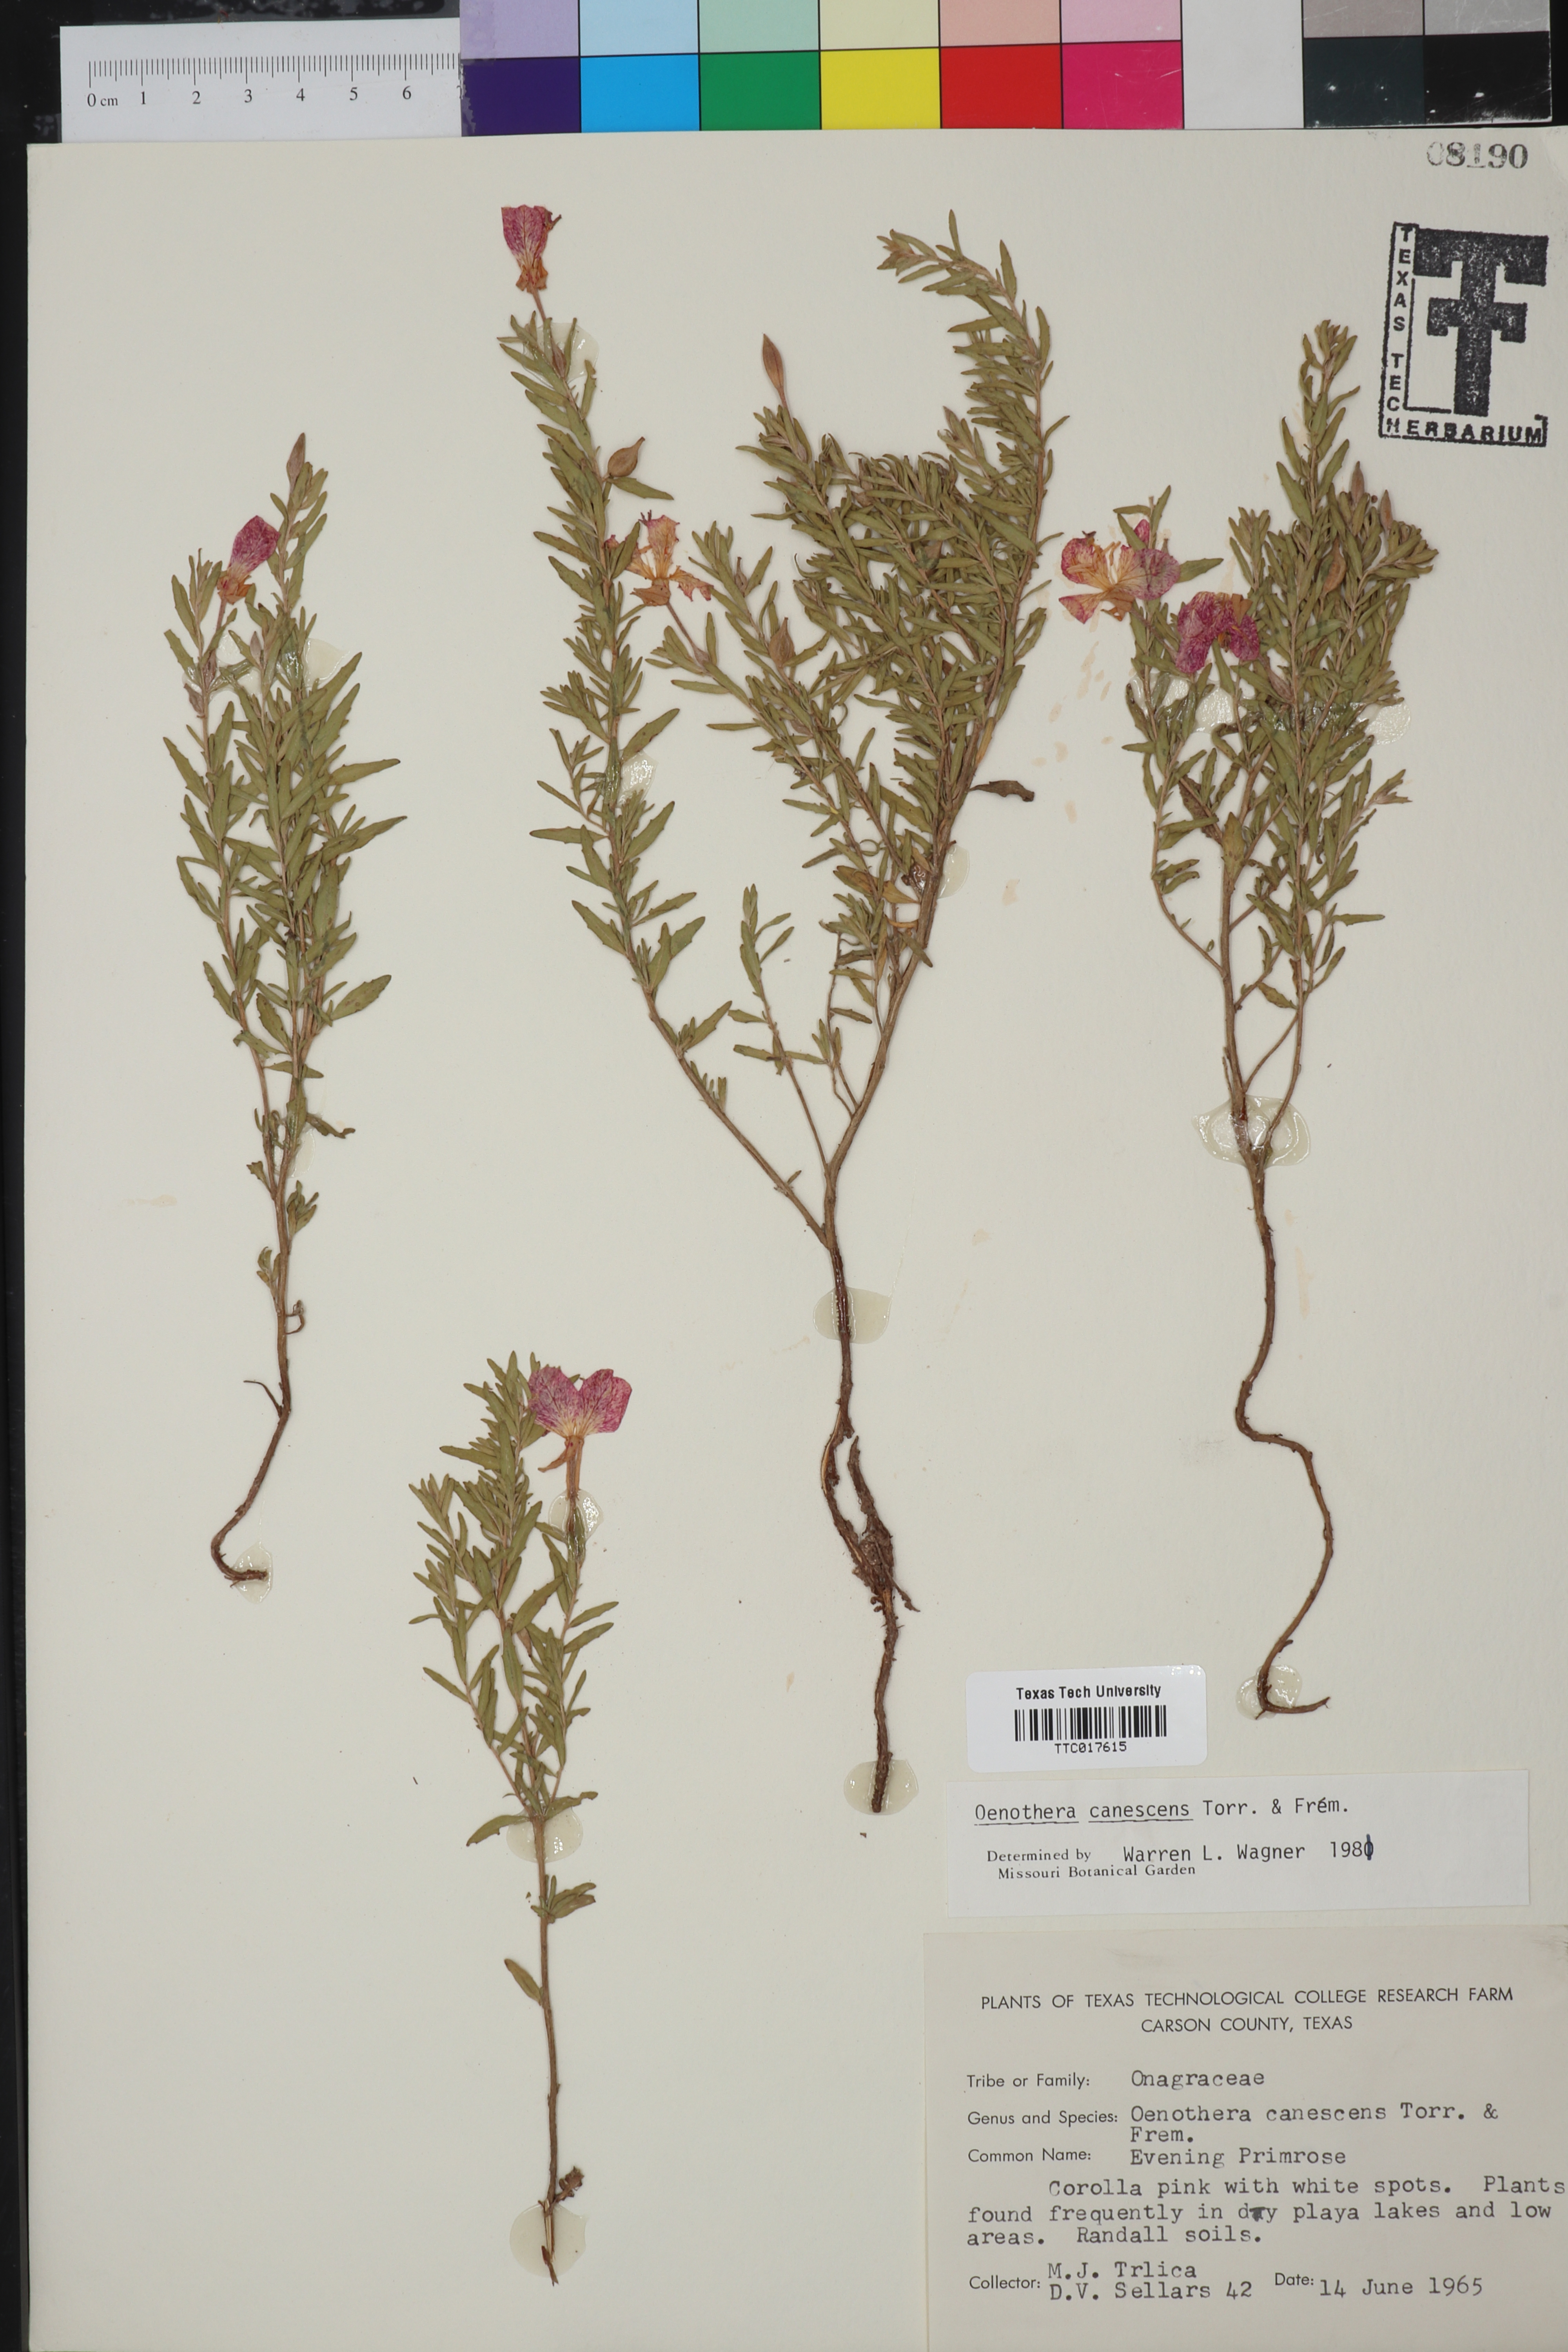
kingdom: Plantae
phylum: Tracheophyta
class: Magnoliopsida
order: Myrtales
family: Onagraceae
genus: Oenothera
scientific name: Oenothera canescens
